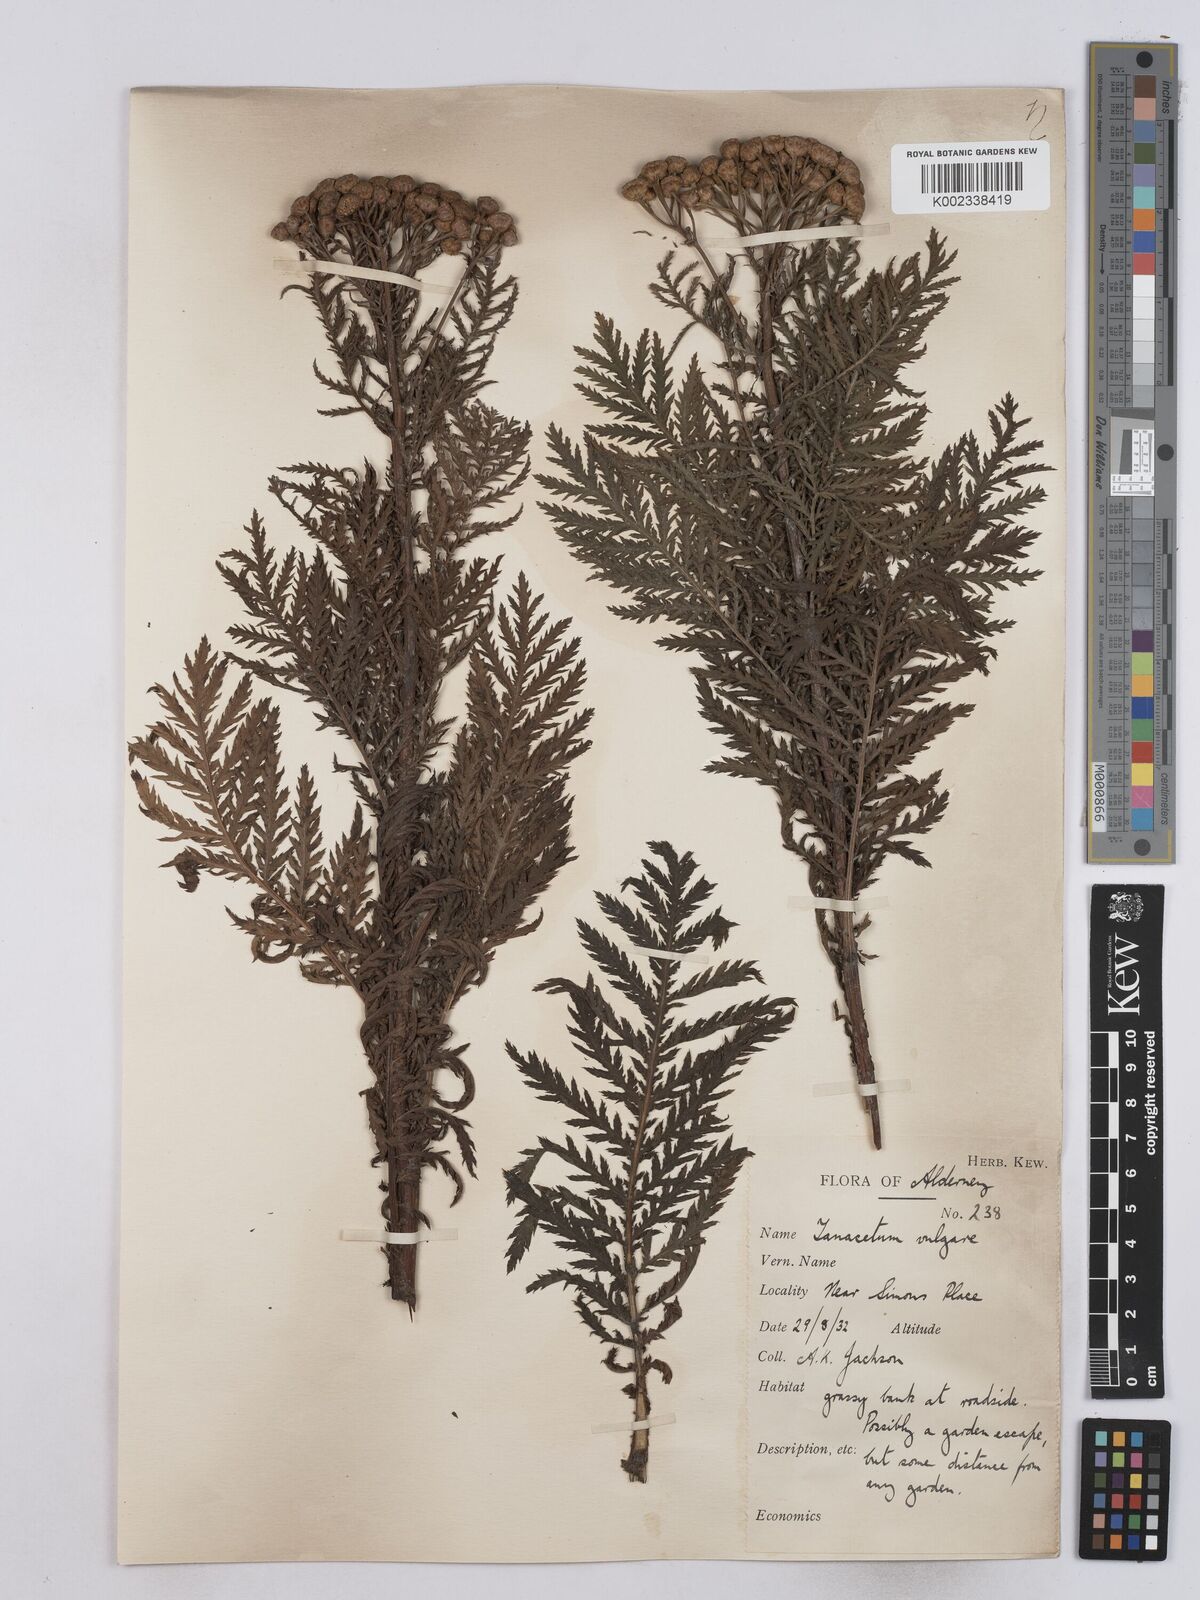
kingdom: Plantae
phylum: Tracheophyta
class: Magnoliopsida
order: Asterales
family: Asteraceae
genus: Tanacetum
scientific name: Tanacetum vulgare
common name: Common tansy
